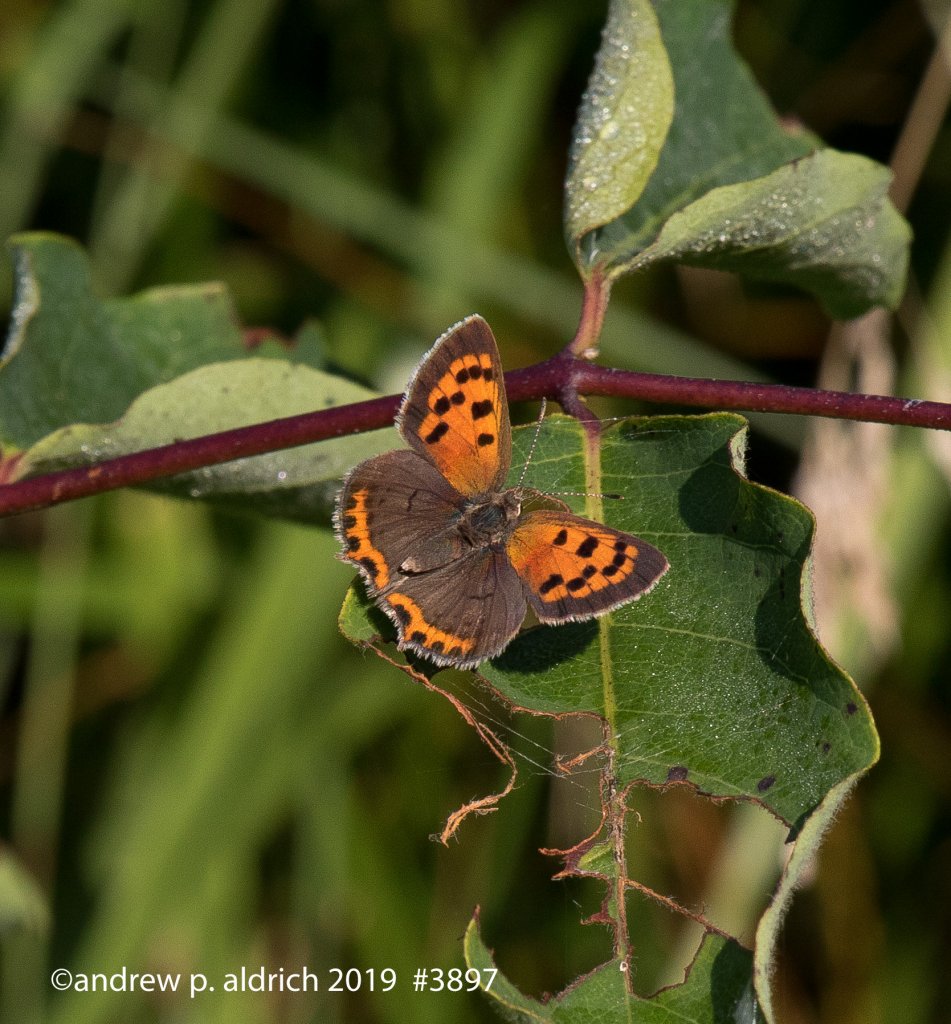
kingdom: Animalia
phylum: Arthropoda
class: Insecta
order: Lepidoptera
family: Lycaenidae
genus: Lycaena
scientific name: Lycaena phlaeas
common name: American Copper
